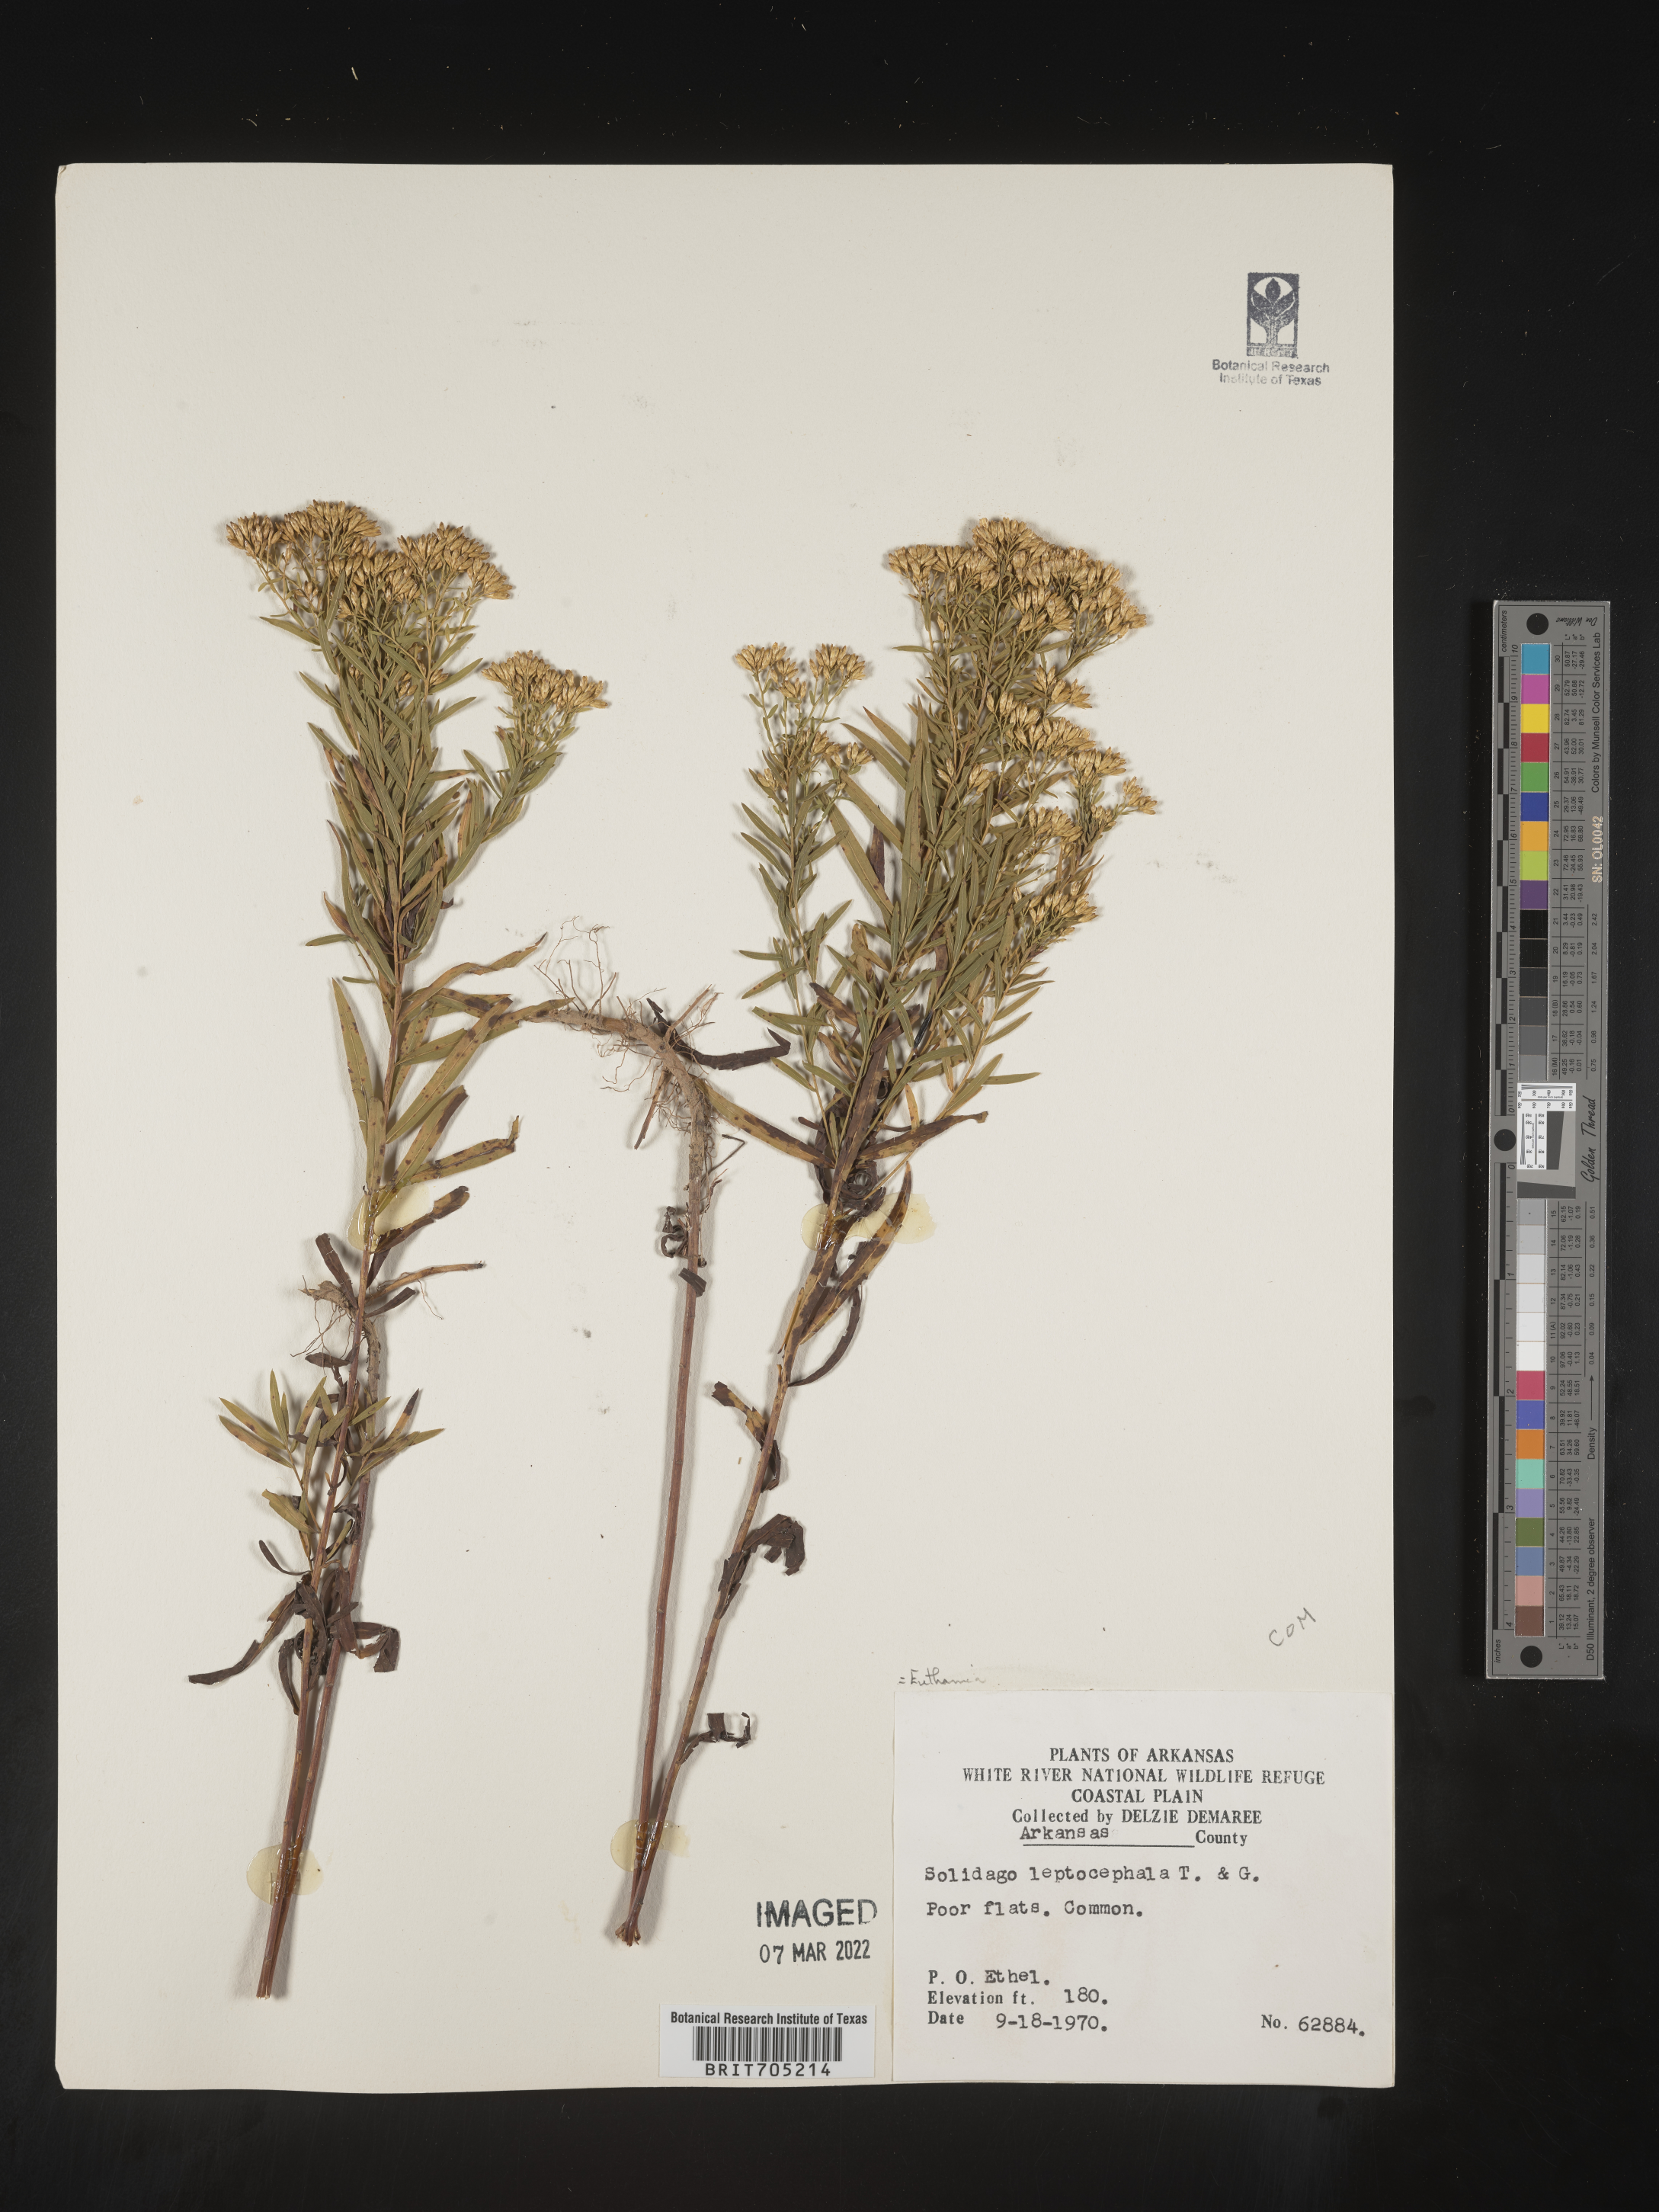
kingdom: Plantae
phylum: Tracheophyta
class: Magnoliopsida
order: Asterales
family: Asteraceae
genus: Euthamia
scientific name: Euthamia leptocephala
